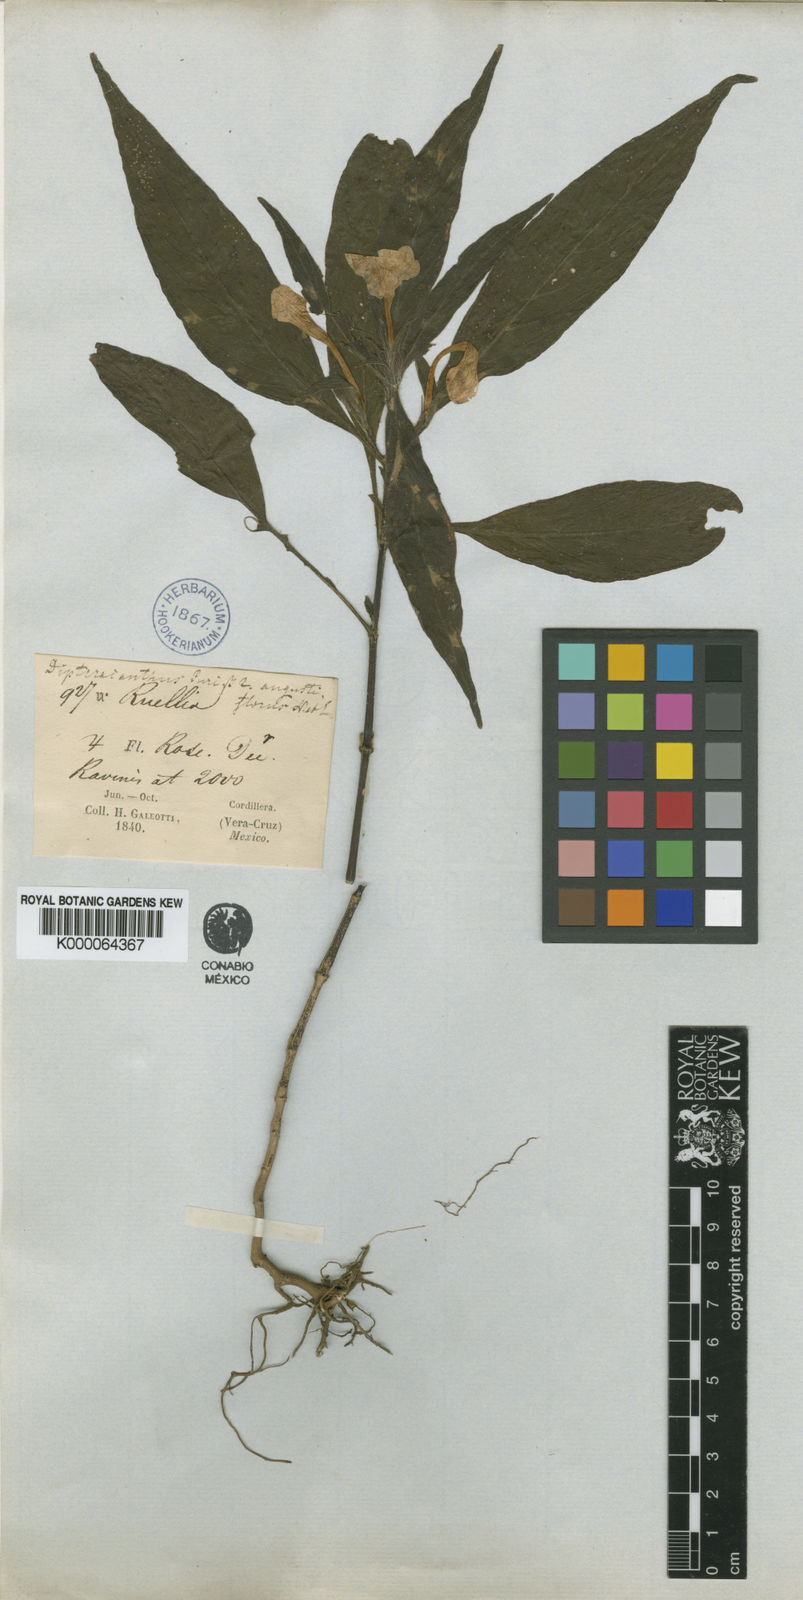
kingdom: Plantae
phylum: Tracheophyta
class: Magnoliopsida
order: Lamiales
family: Acanthaceae
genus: Ruellia
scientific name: Ruellia jussieuoides
